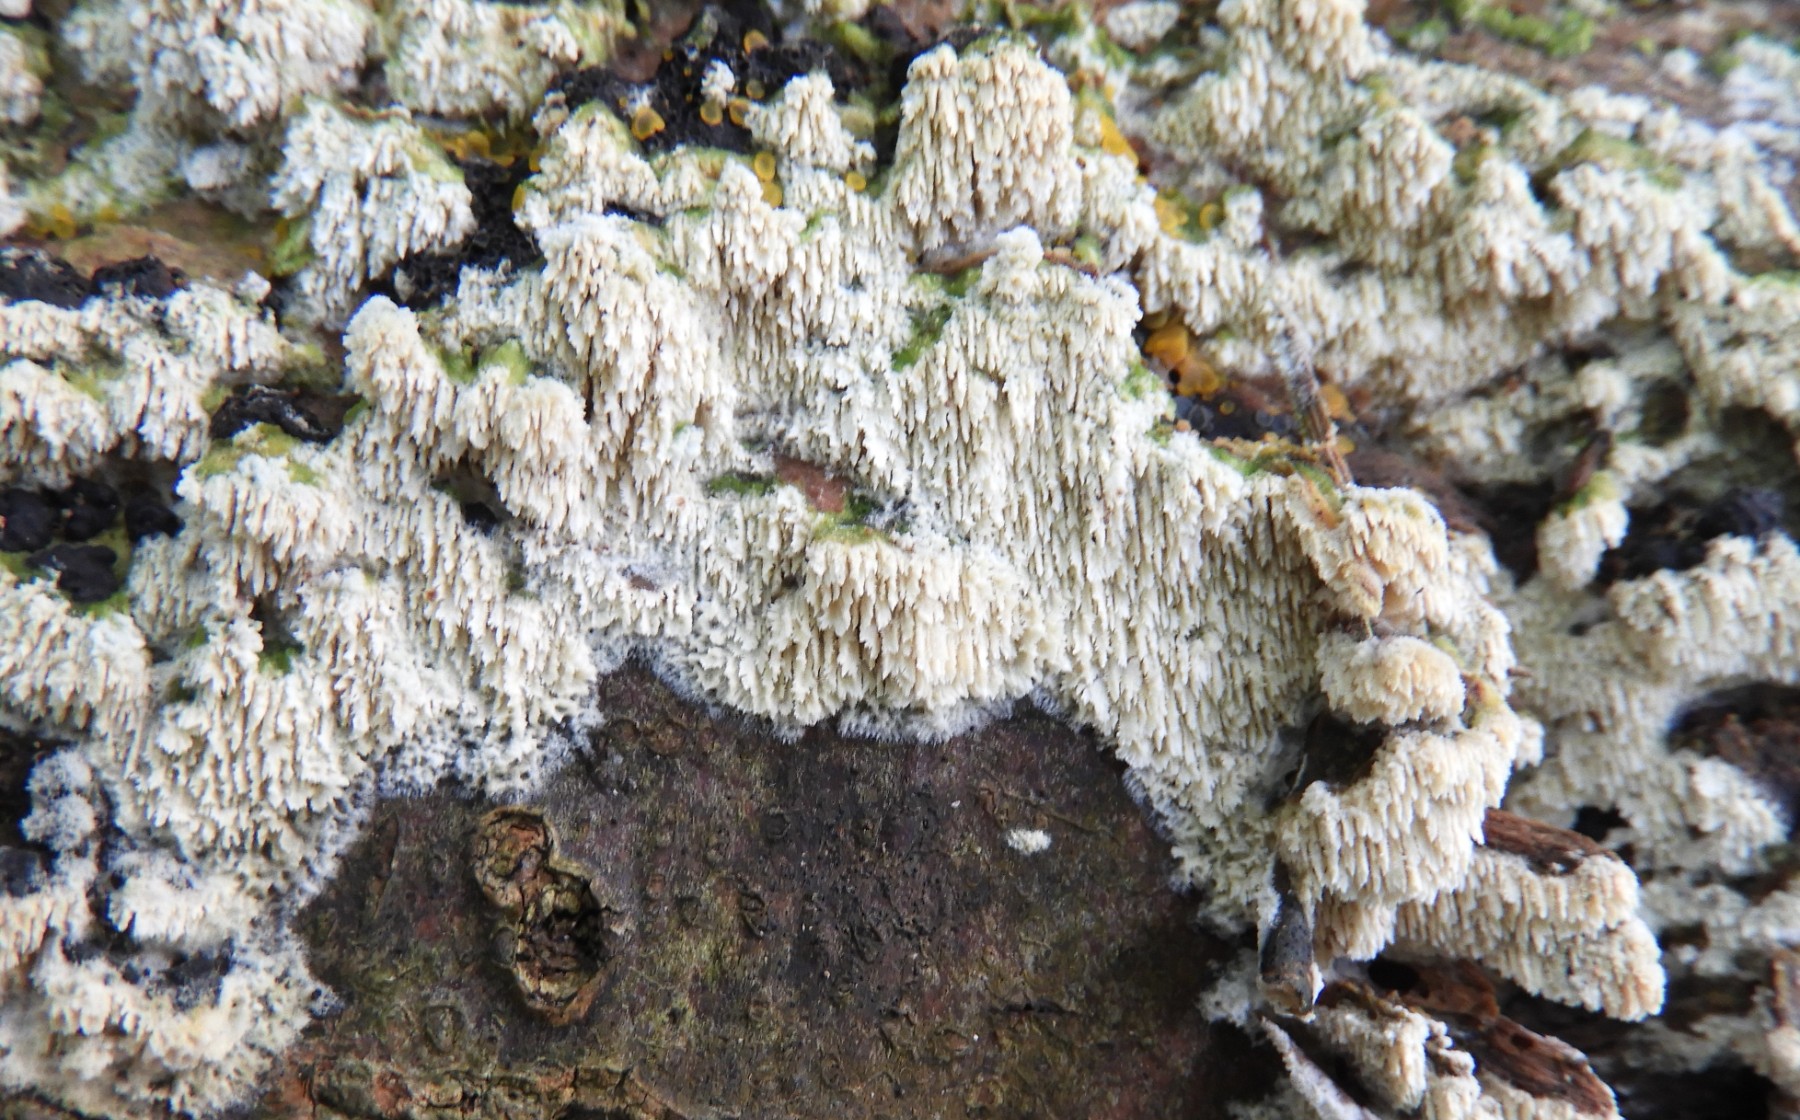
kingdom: Fungi
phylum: Basidiomycota
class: Agaricomycetes
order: Hymenochaetales
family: Schizoporaceae
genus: Schizopora
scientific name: Schizopora paradoxa
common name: hvid tandsvamp
